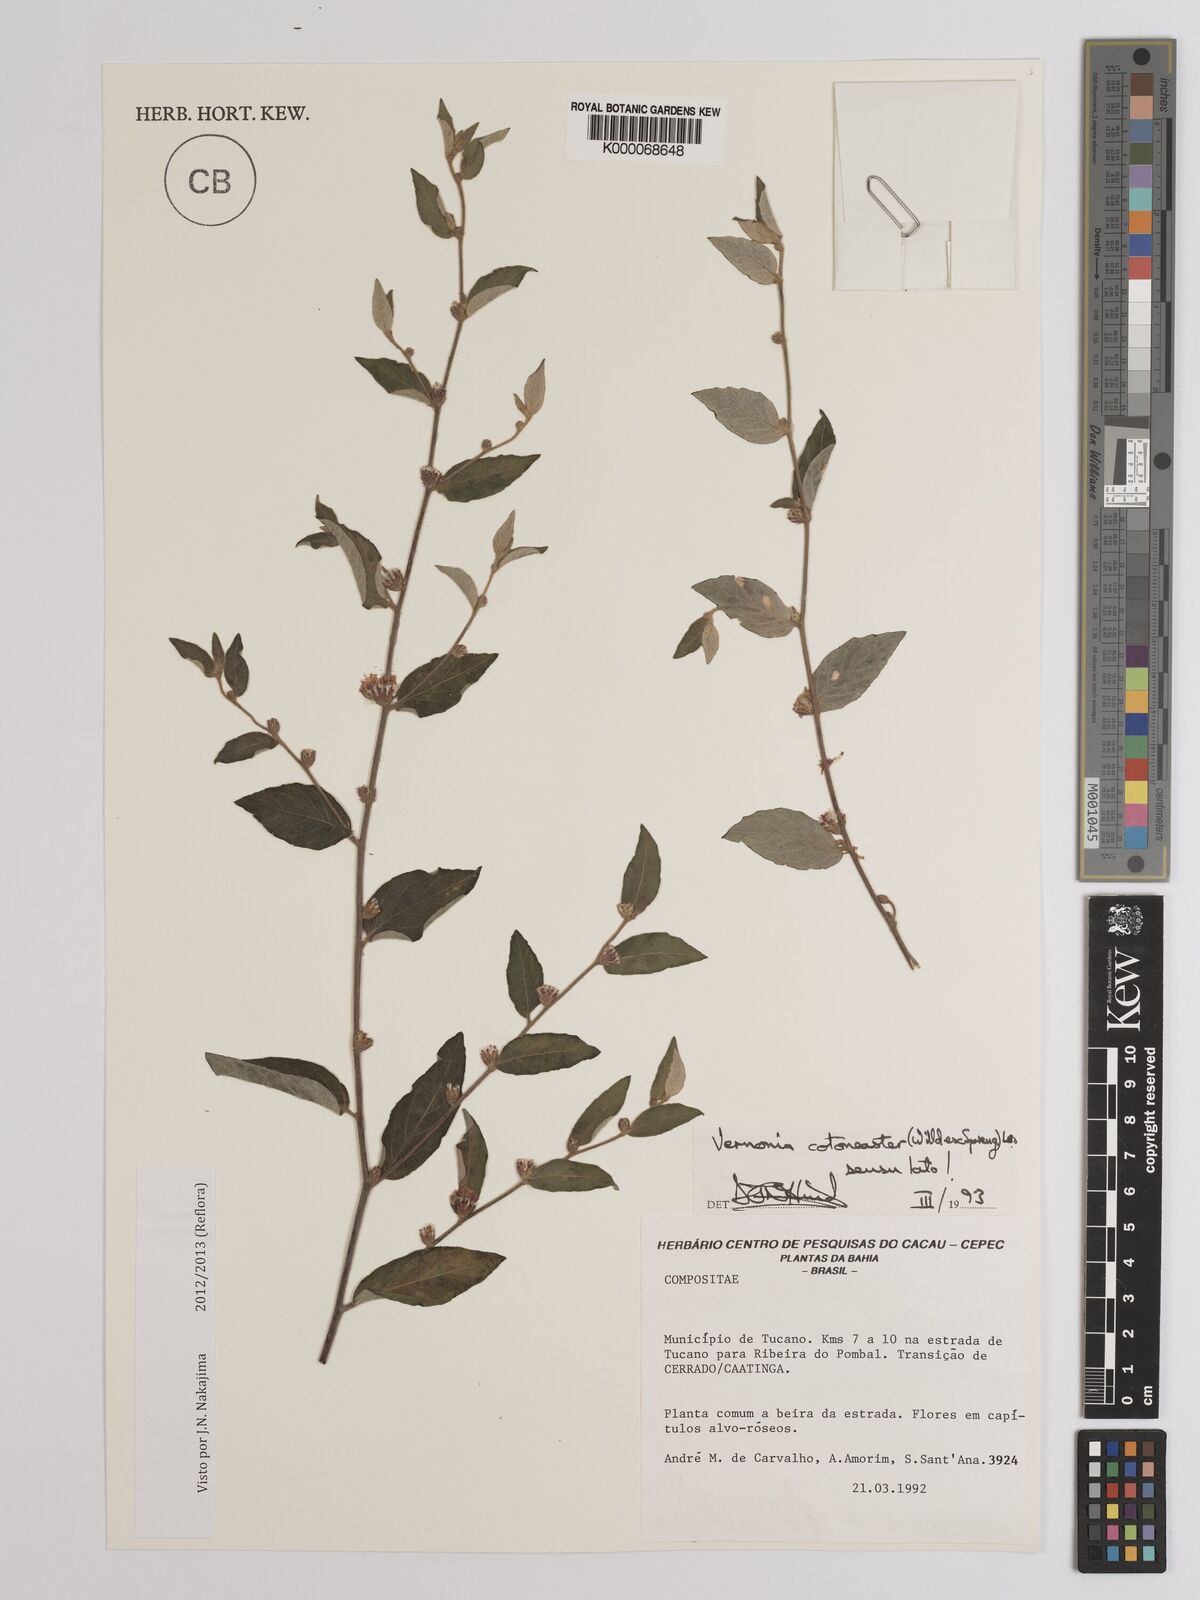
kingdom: Plantae
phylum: Tracheophyta
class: Magnoliopsida
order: Asterales
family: Asteraceae
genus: Lepidaploa
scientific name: Lepidaploa cotoneaster
